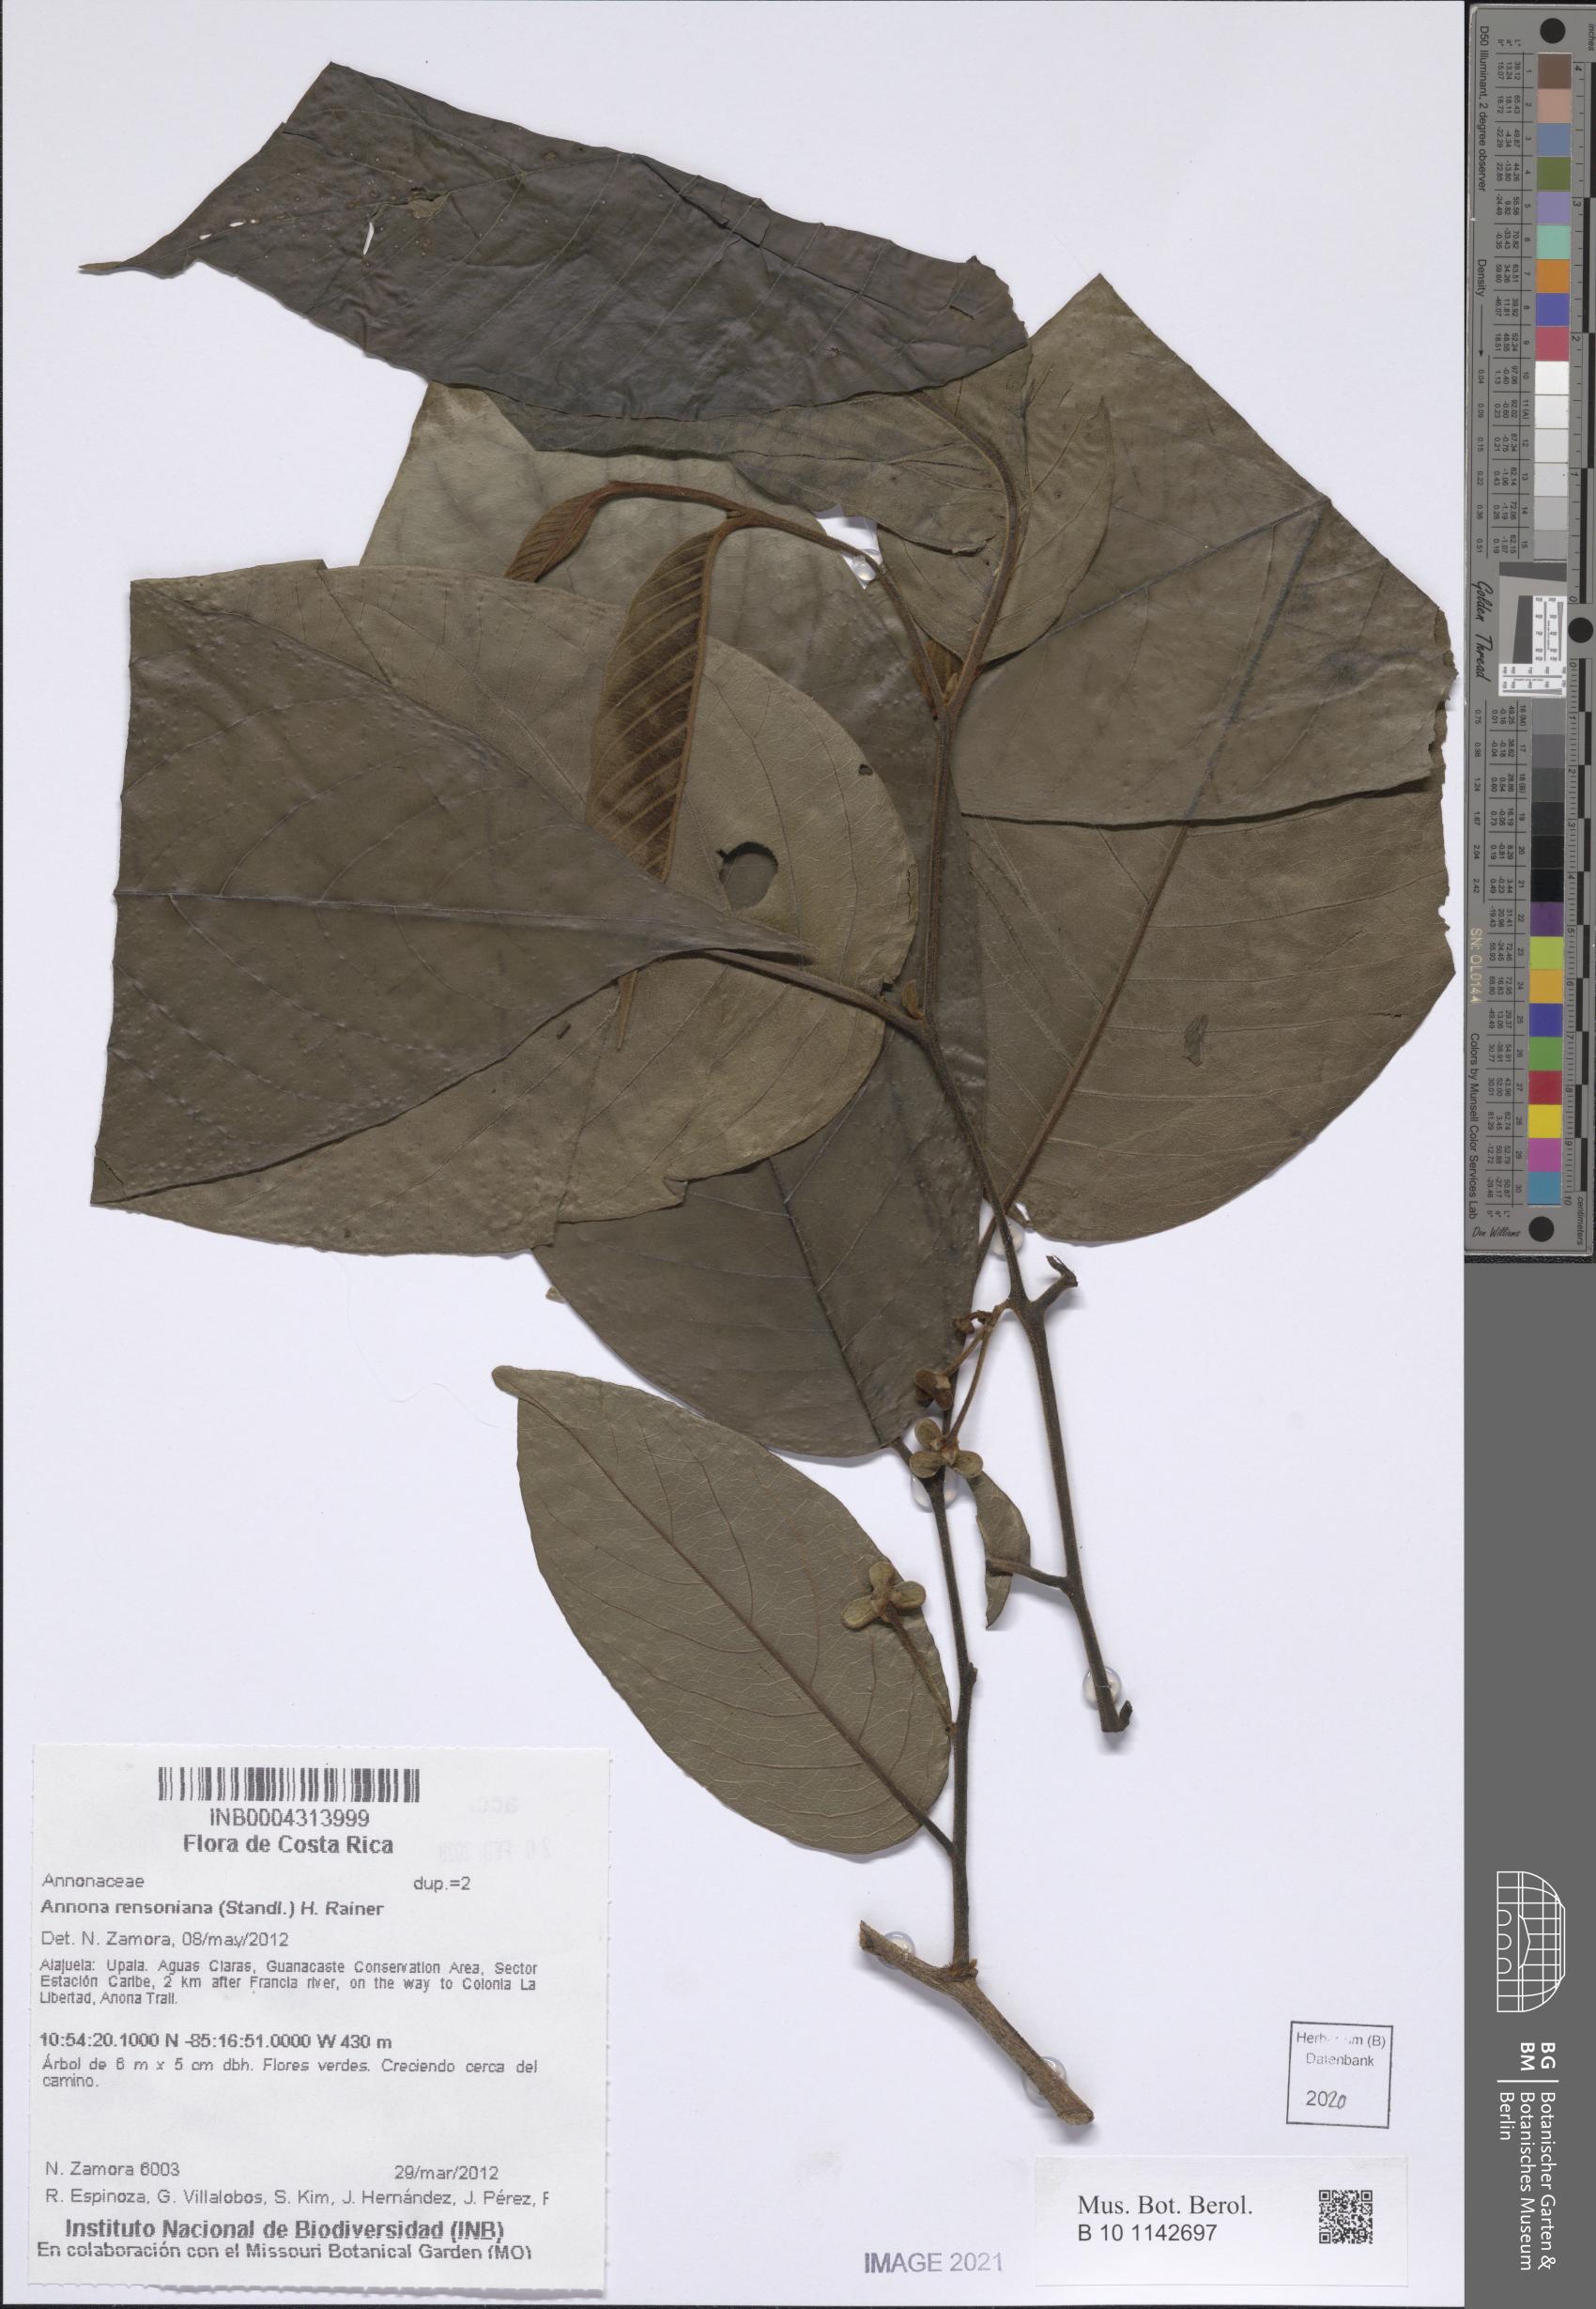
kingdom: Plantae
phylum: Tracheophyta
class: Magnoliopsida
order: Magnoliales
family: Annonaceae
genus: Annona
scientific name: Annona rensoniana
